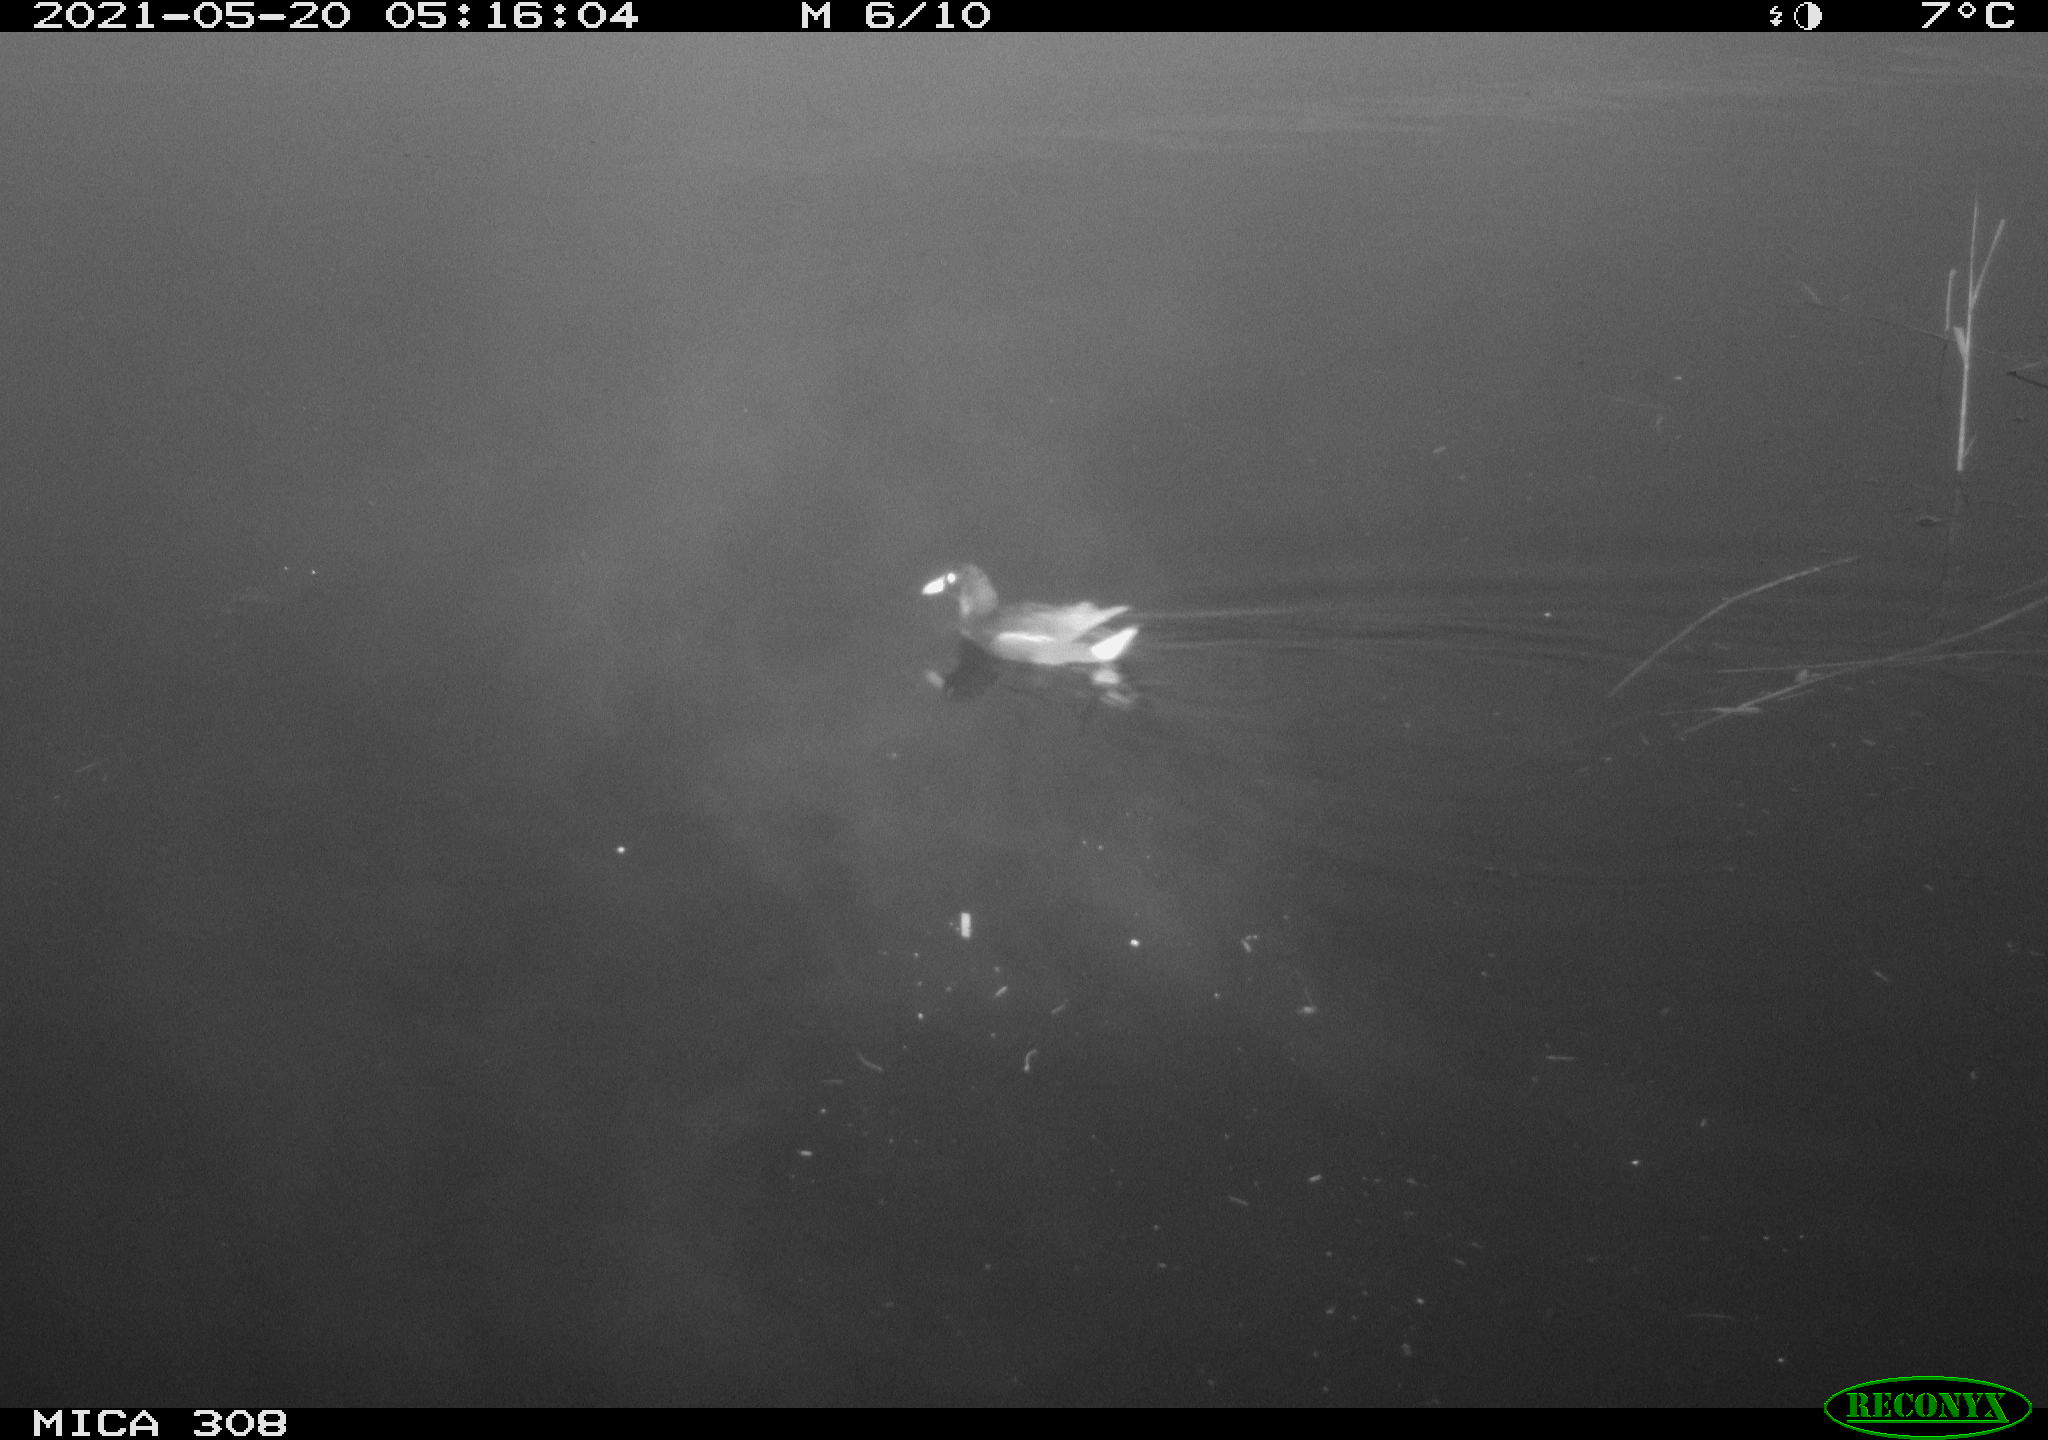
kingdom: Animalia
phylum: Chordata
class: Aves
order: Gruiformes
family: Rallidae
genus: Gallinula
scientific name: Gallinula chloropus
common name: Common moorhen
